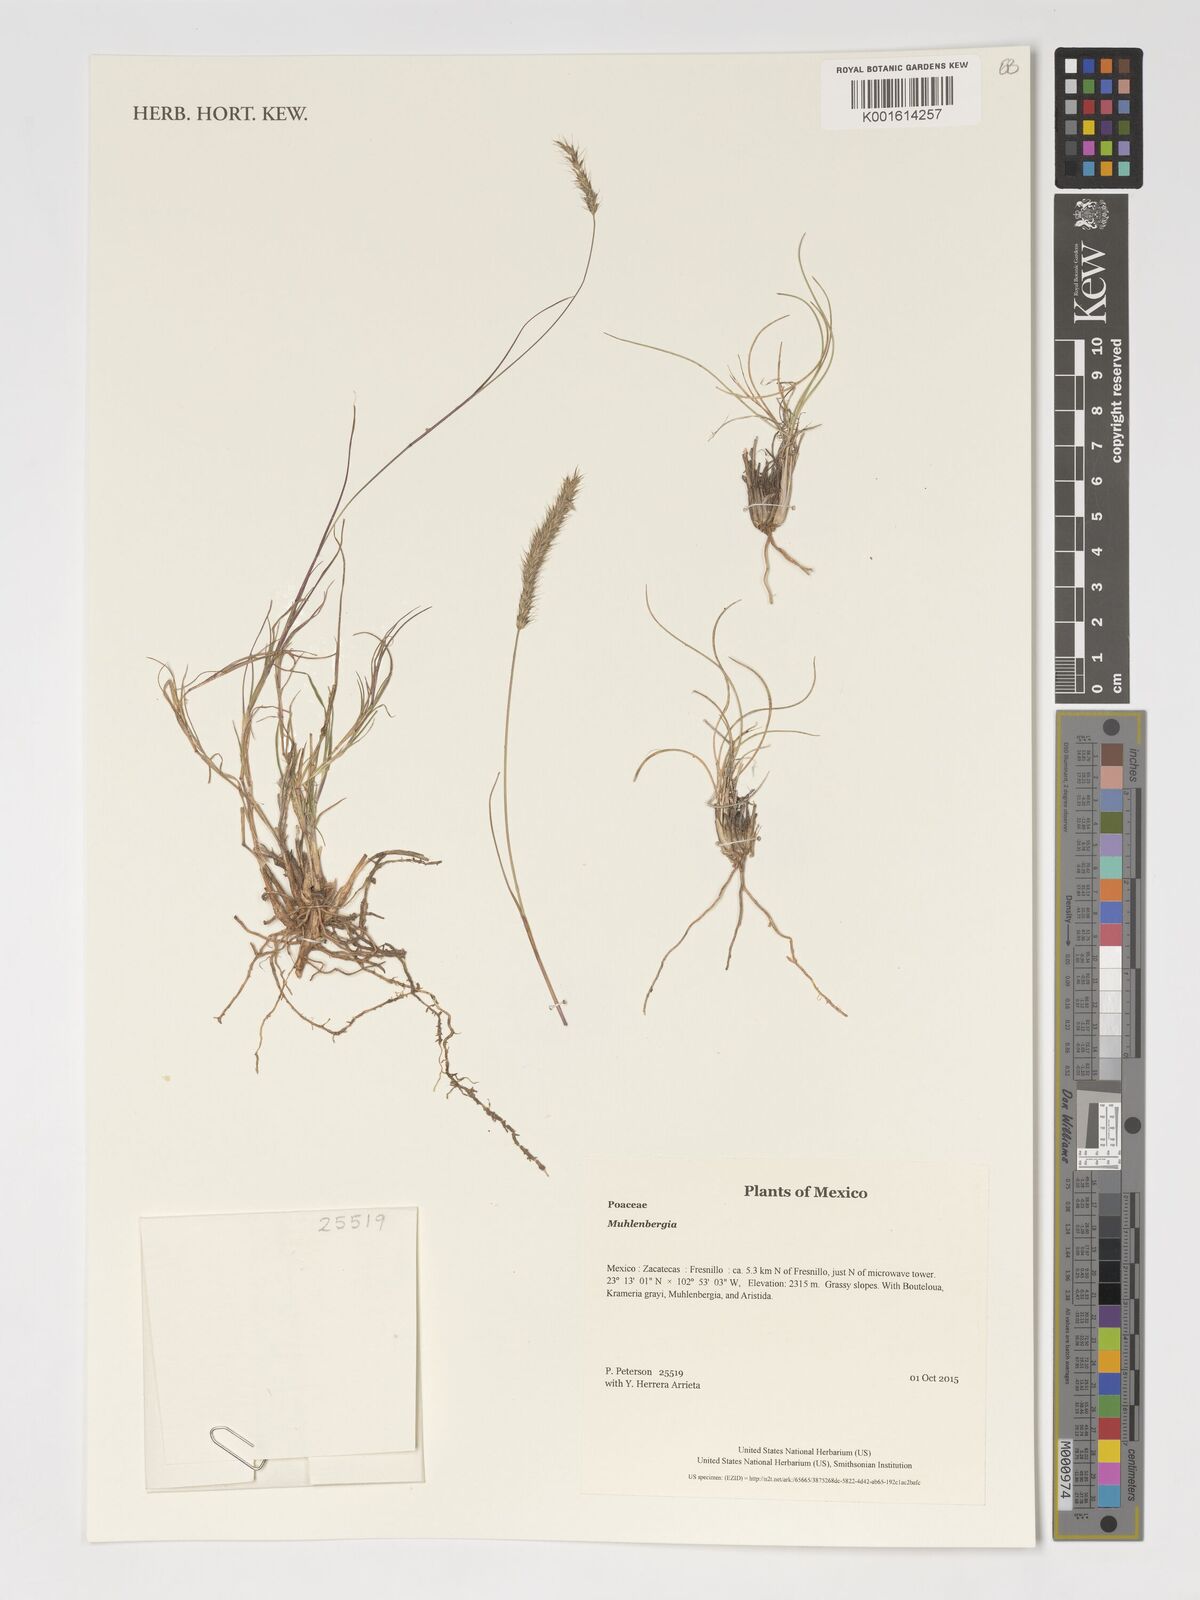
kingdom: Plantae
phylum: Tracheophyta
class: Liliopsida
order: Poales
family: Poaceae
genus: Muhlenbergia
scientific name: Muhlenbergia
